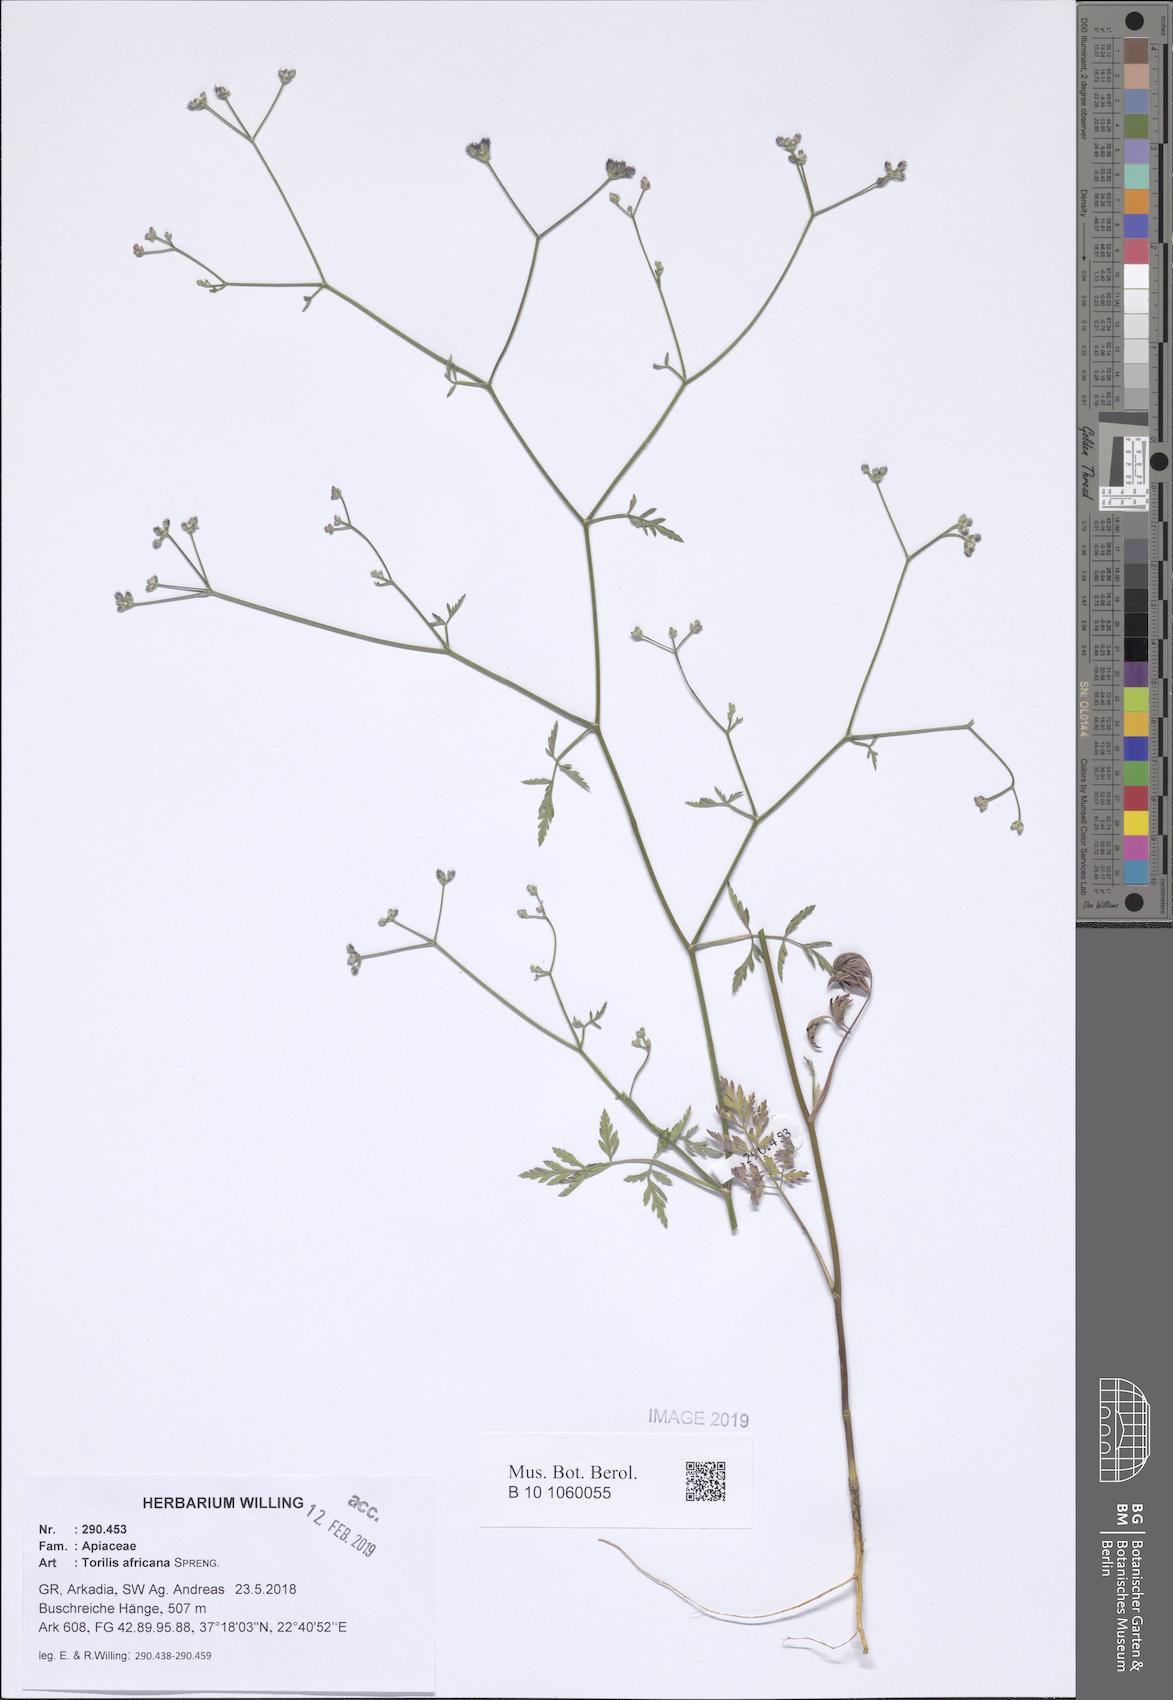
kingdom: Plantae
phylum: Tracheophyta
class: Magnoliopsida
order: Apiales
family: Apiaceae
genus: Torilis
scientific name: Torilis africana
